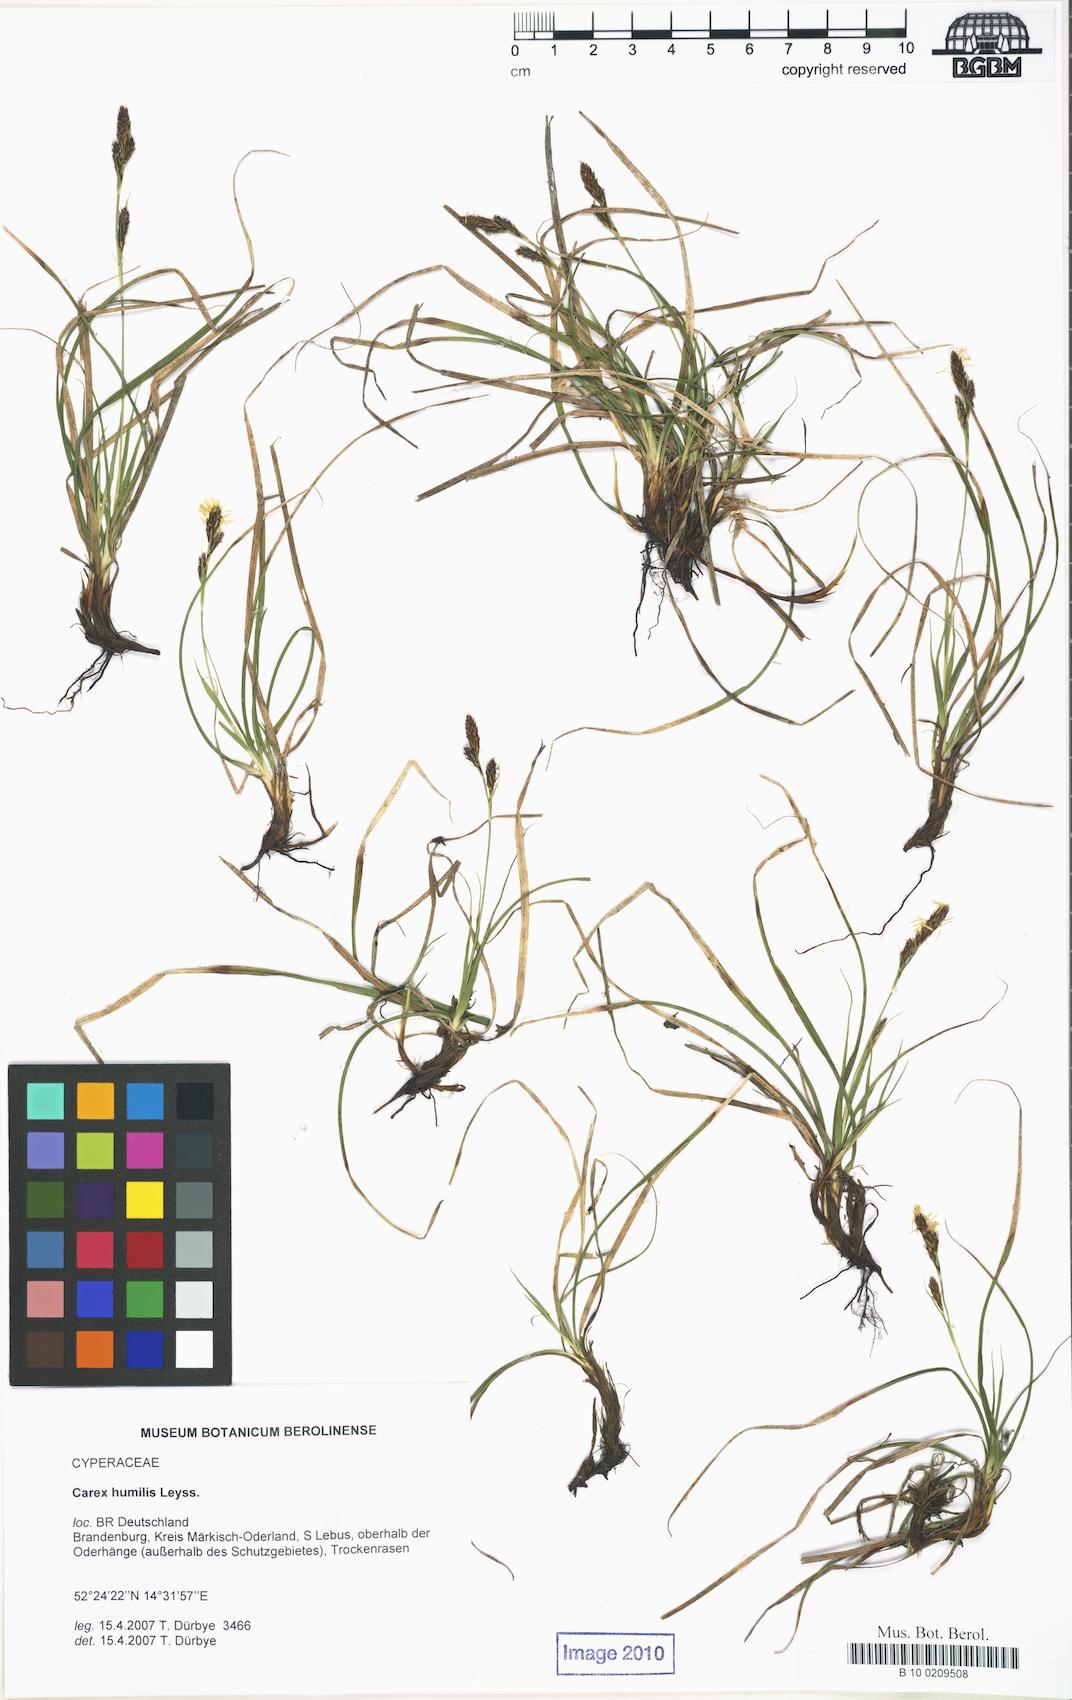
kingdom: Plantae
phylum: Tracheophyta
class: Liliopsida
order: Poales
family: Cyperaceae
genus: Carex
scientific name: Carex caryophyllea
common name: Spring sedge
